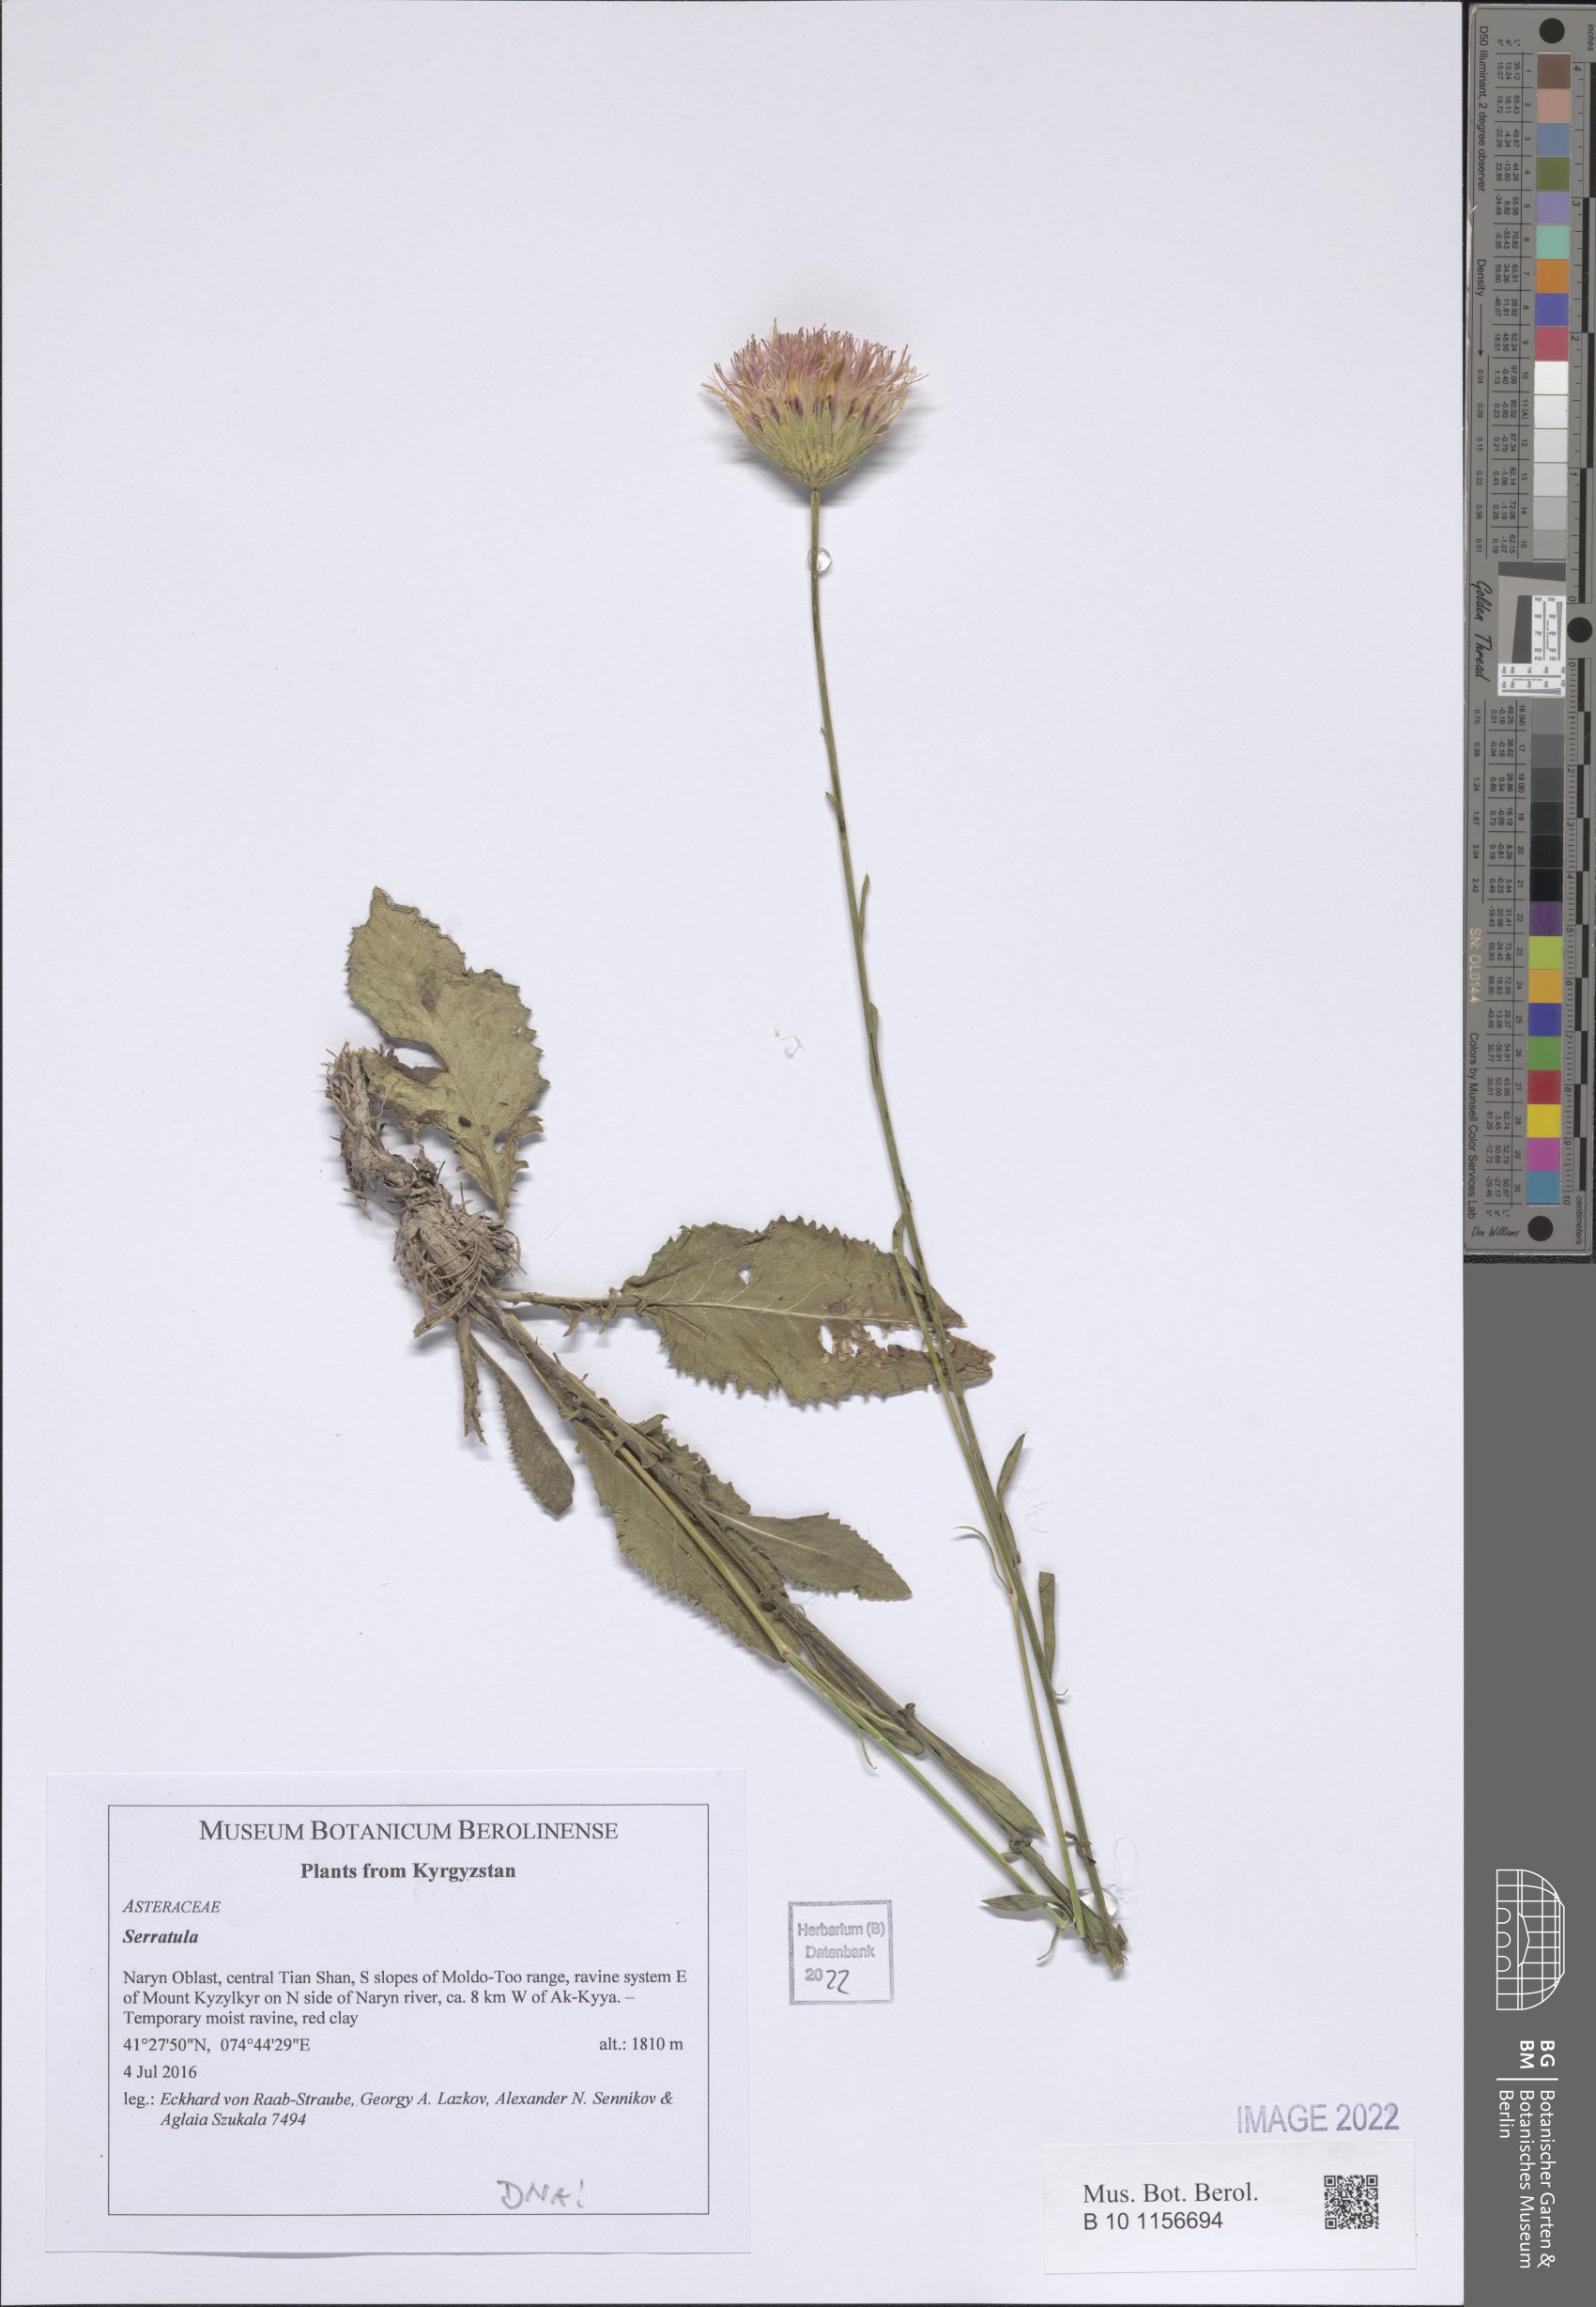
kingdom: Plantae
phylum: Tracheophyta
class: Magnoliopsida
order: Asterales
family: Asteraceae
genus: Serratula
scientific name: Serratula
